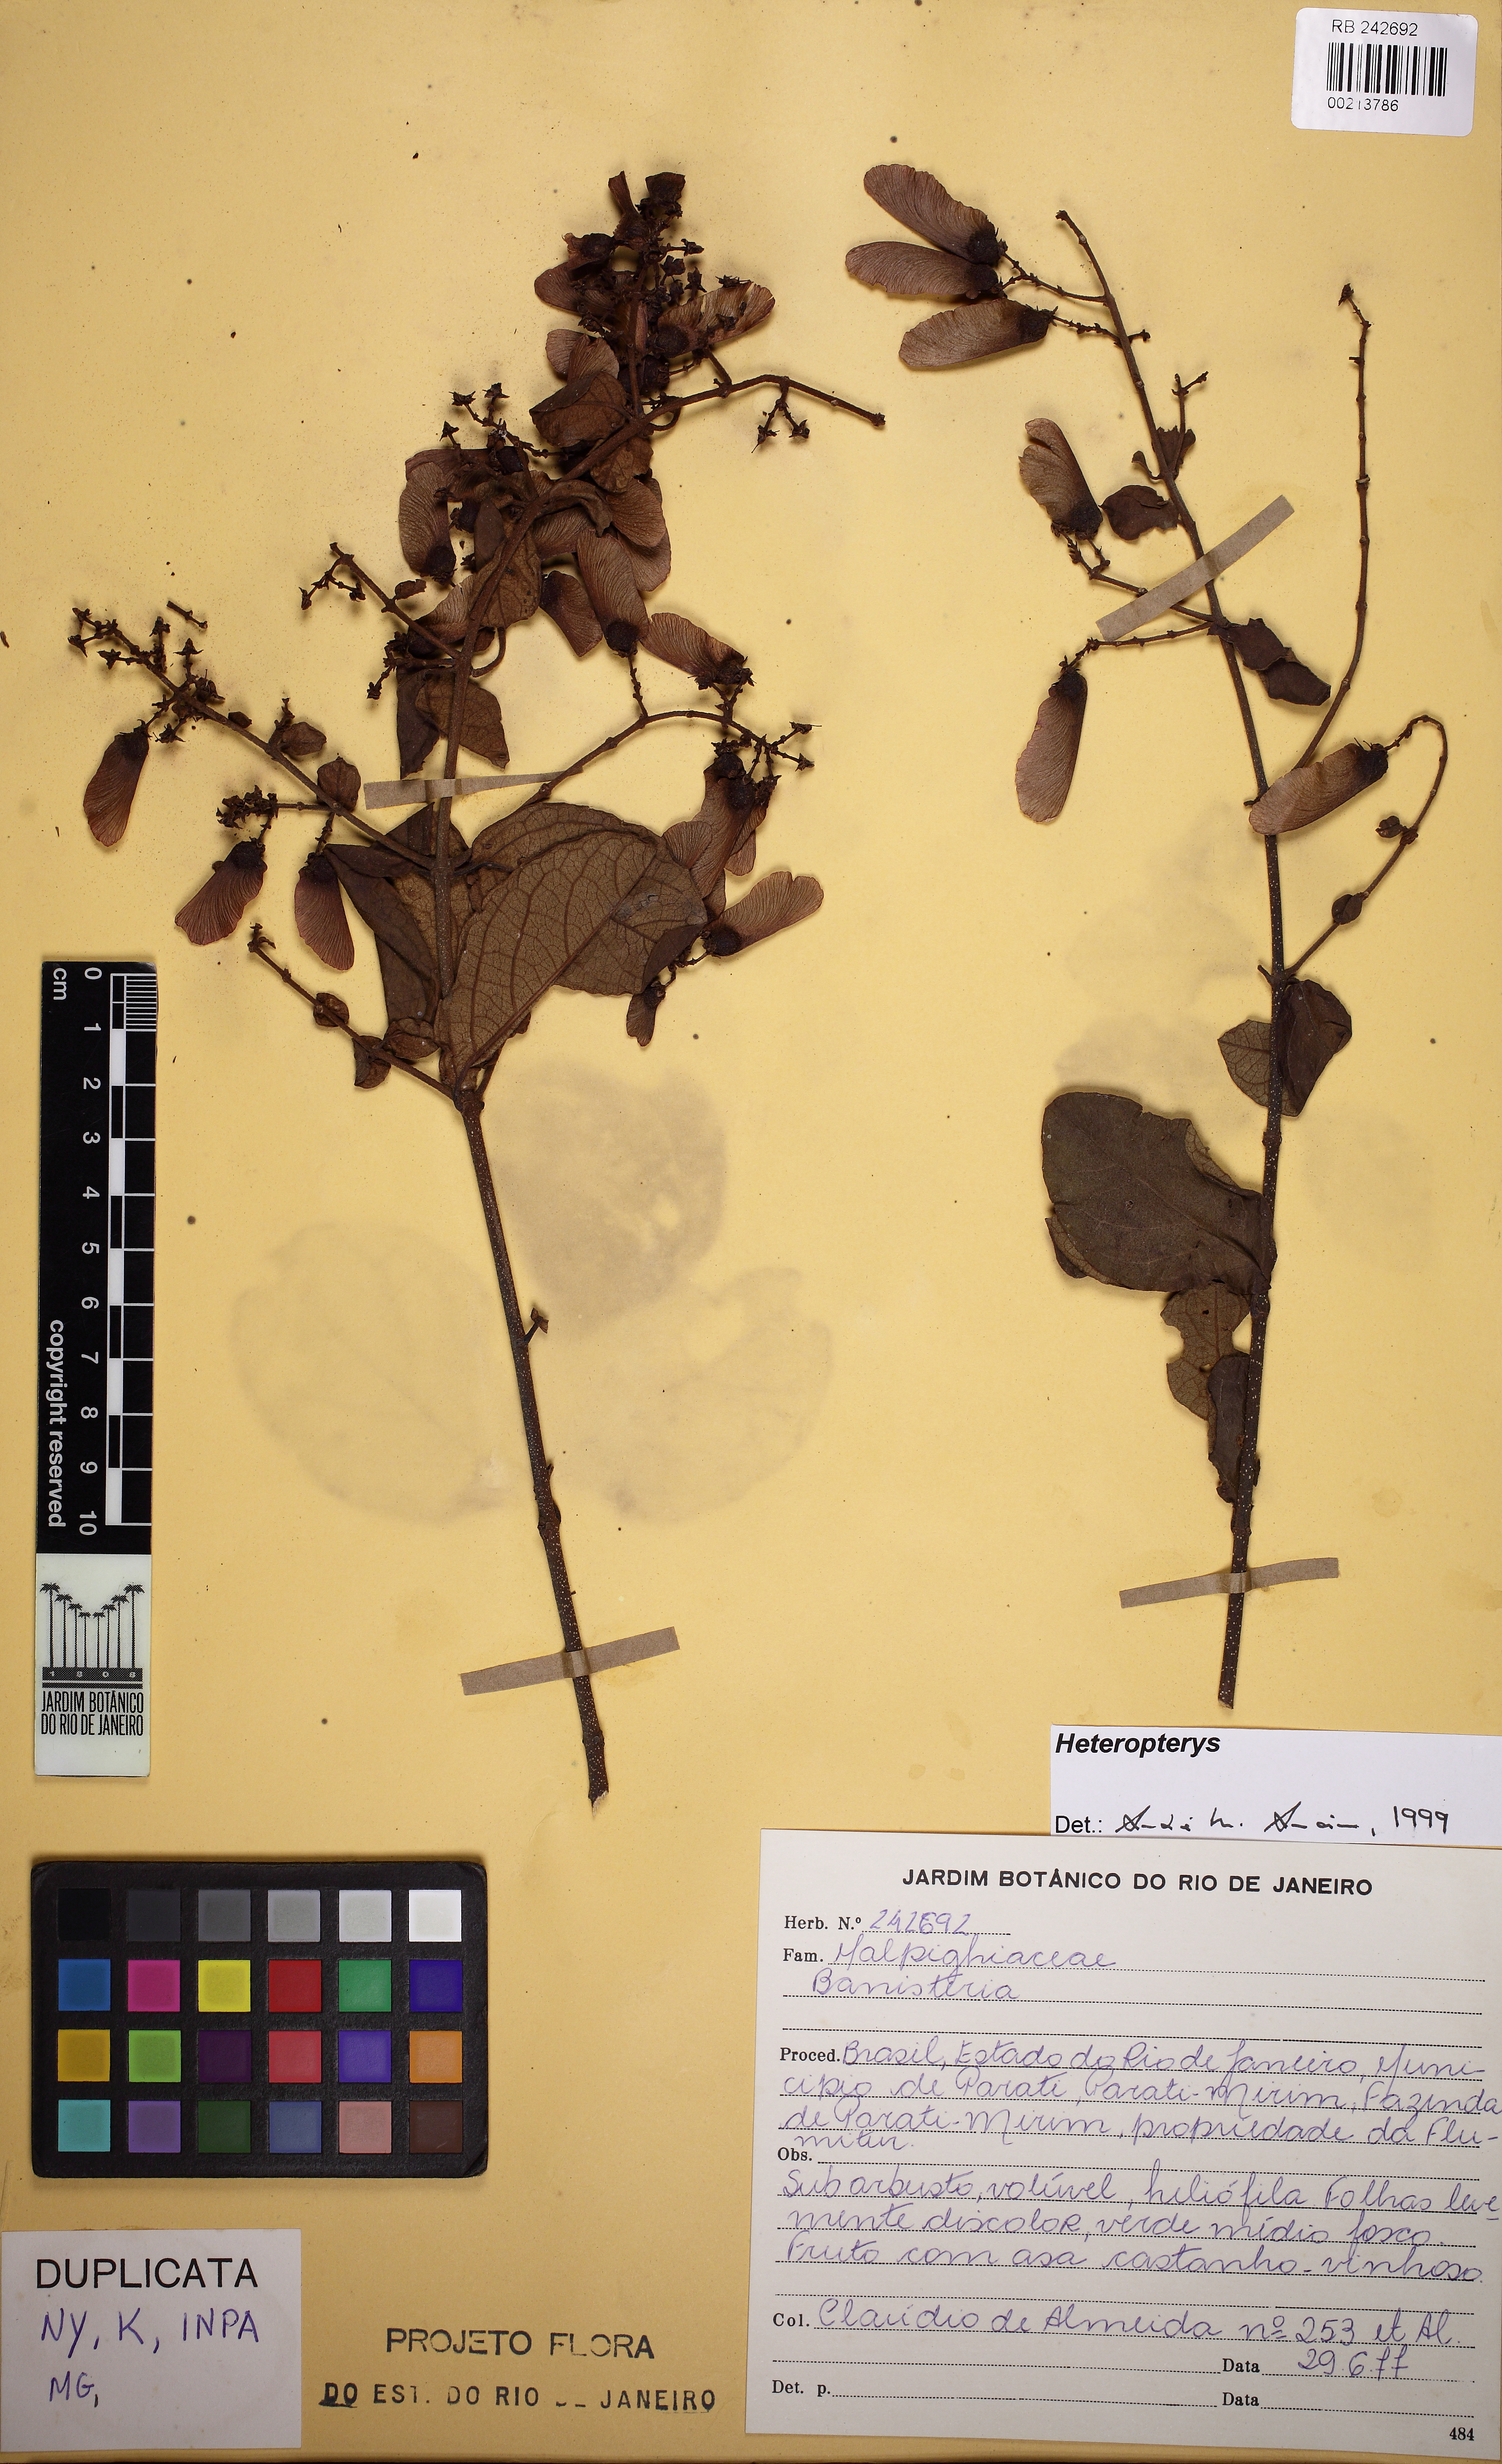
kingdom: Plantae
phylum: Tracheophyta
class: Magnoliopsida
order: Malpighiales
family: Malpighiaceae
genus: Heteropterys
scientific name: Heteropterys
